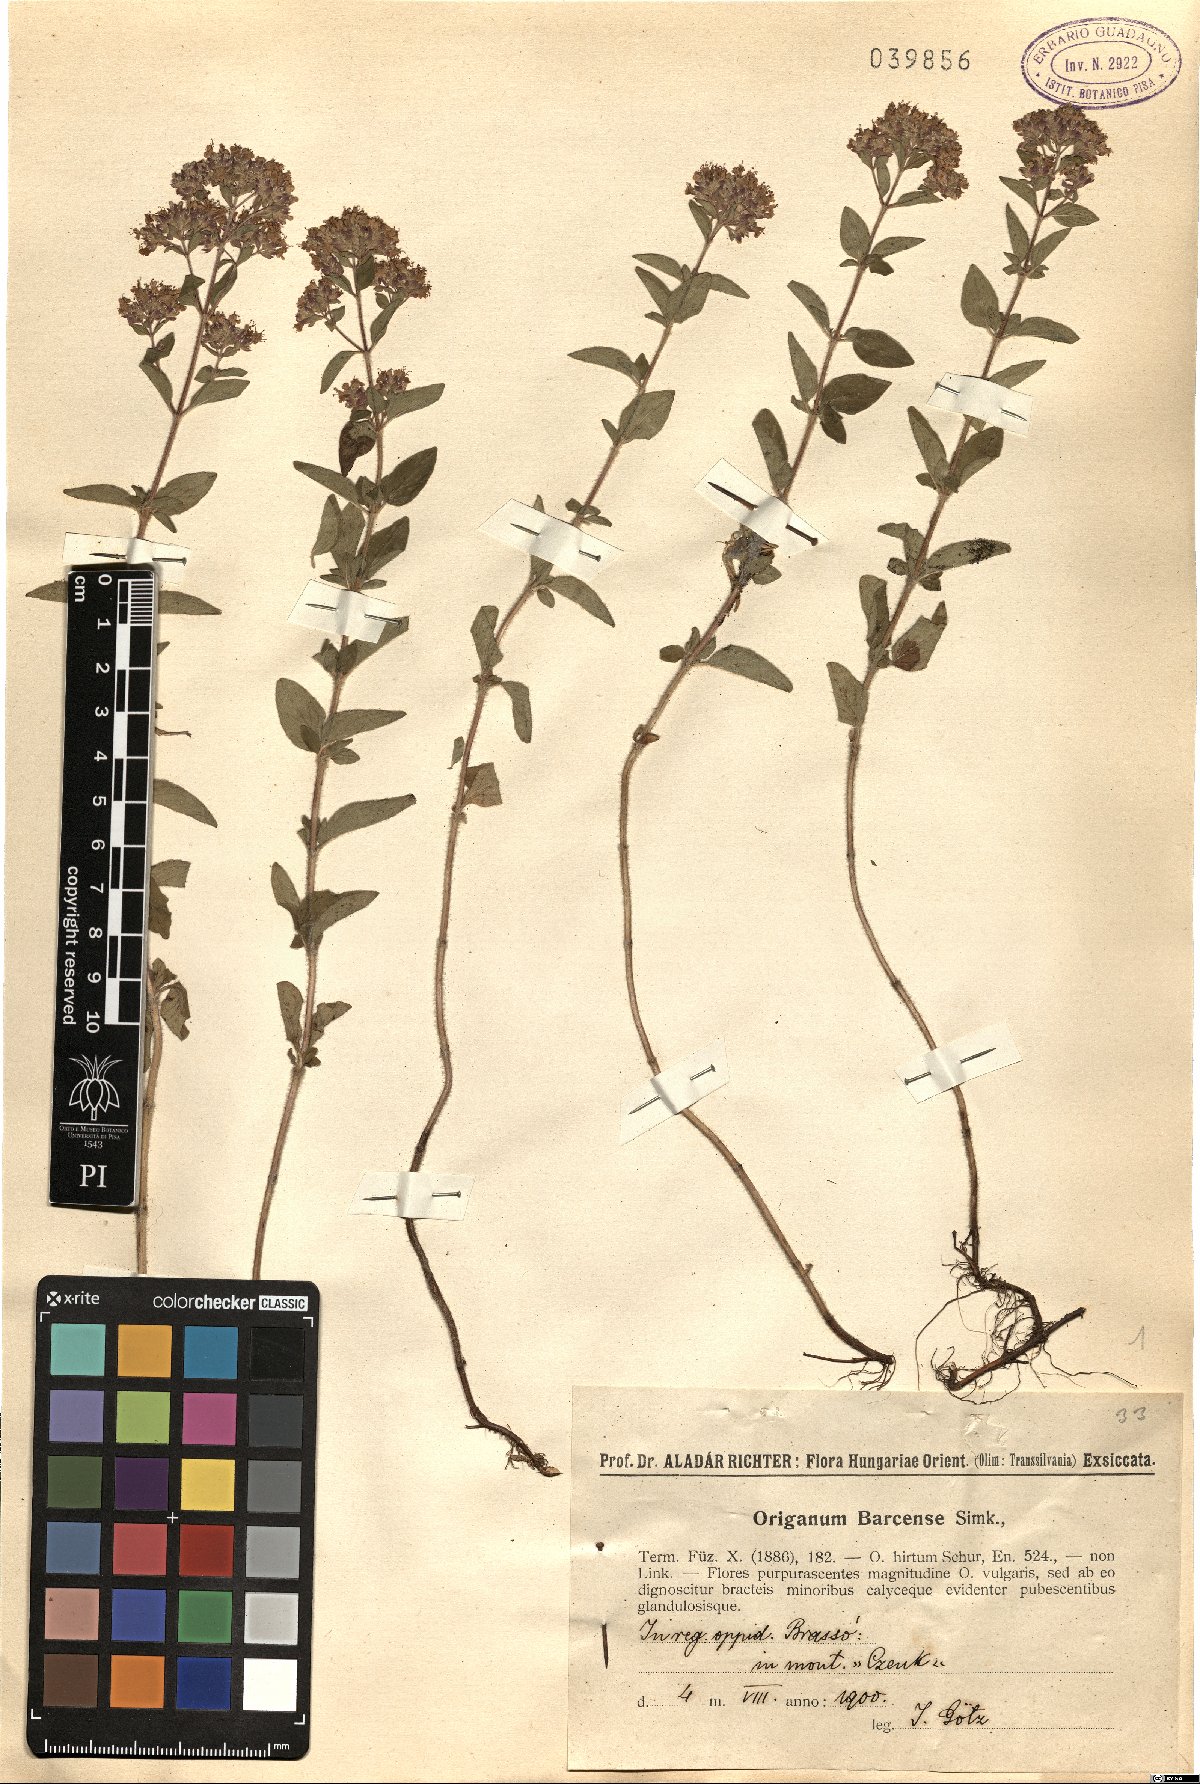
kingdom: Plantae
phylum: Tracheophyta
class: Magnoliopsida
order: Lamiales
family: Lamiaceae
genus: Origanum
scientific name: Origanum vulgare
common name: Wild marjoram
